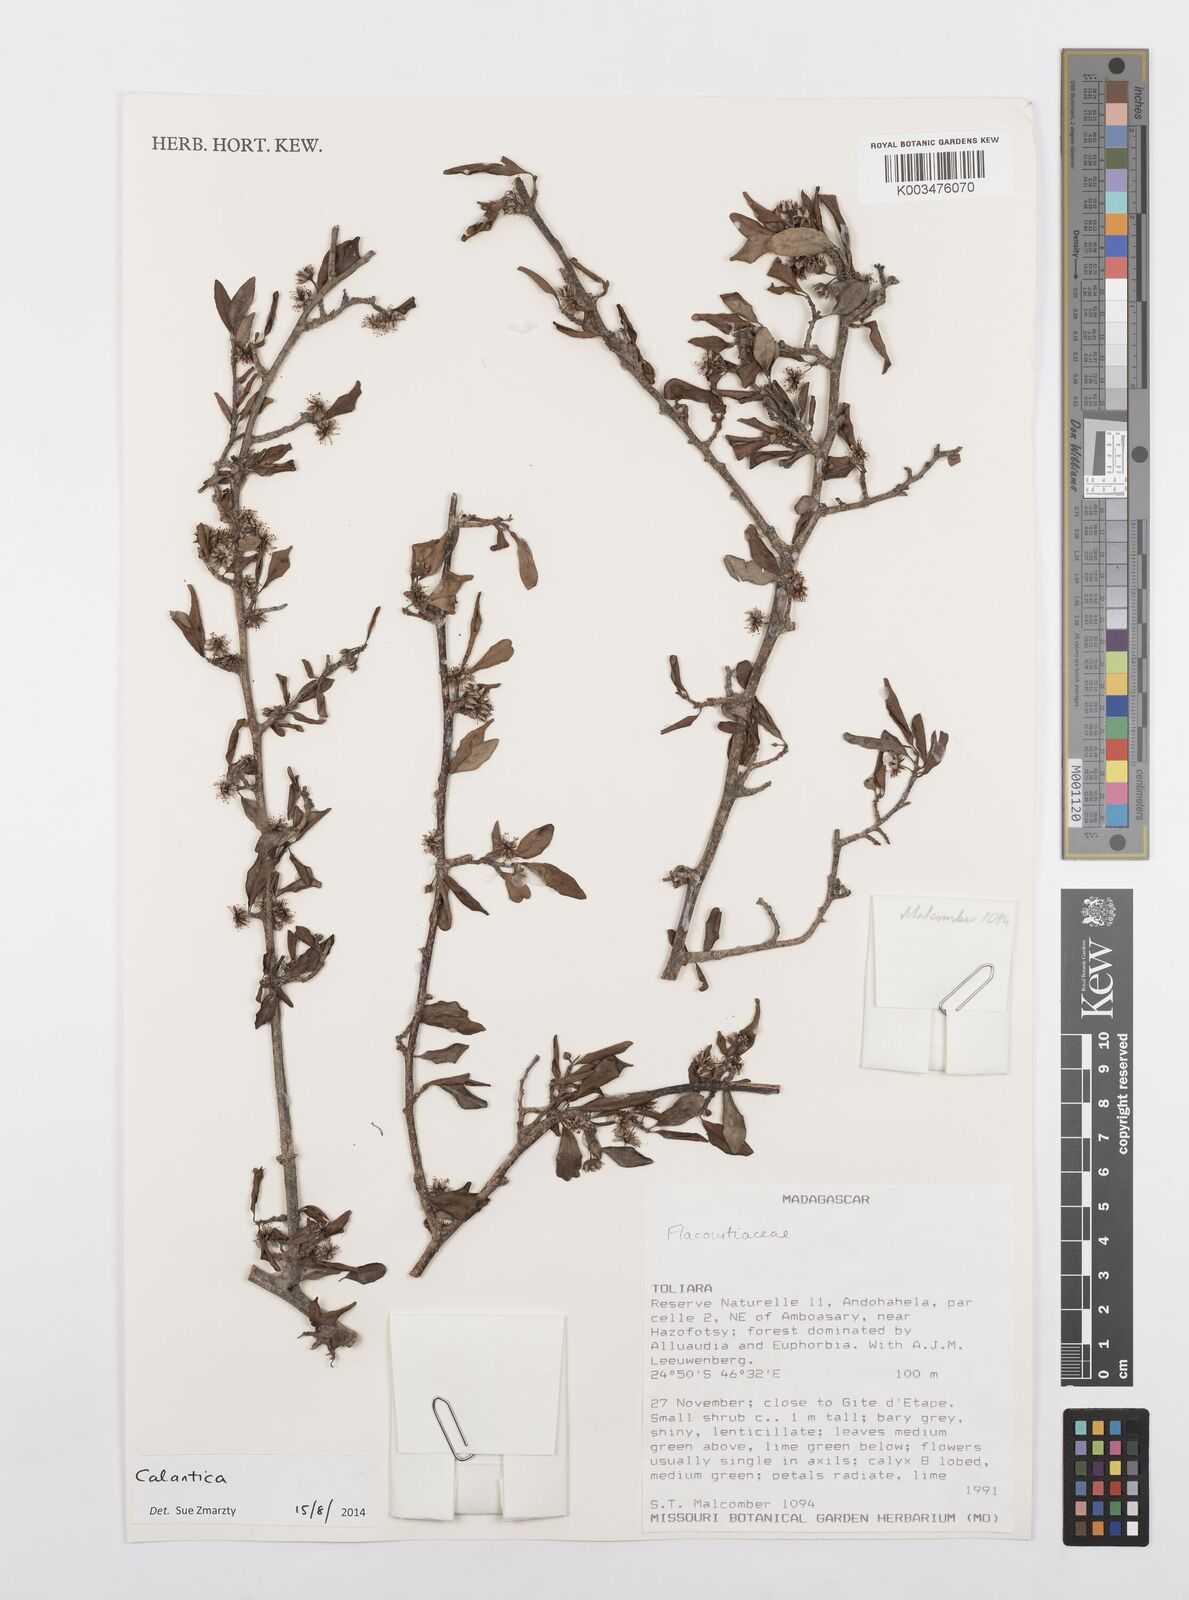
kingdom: Plantae
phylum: Tracheophyta
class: Magnoliopsida
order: Malpighiales
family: Salicaceae
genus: Calantica
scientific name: Calantica
